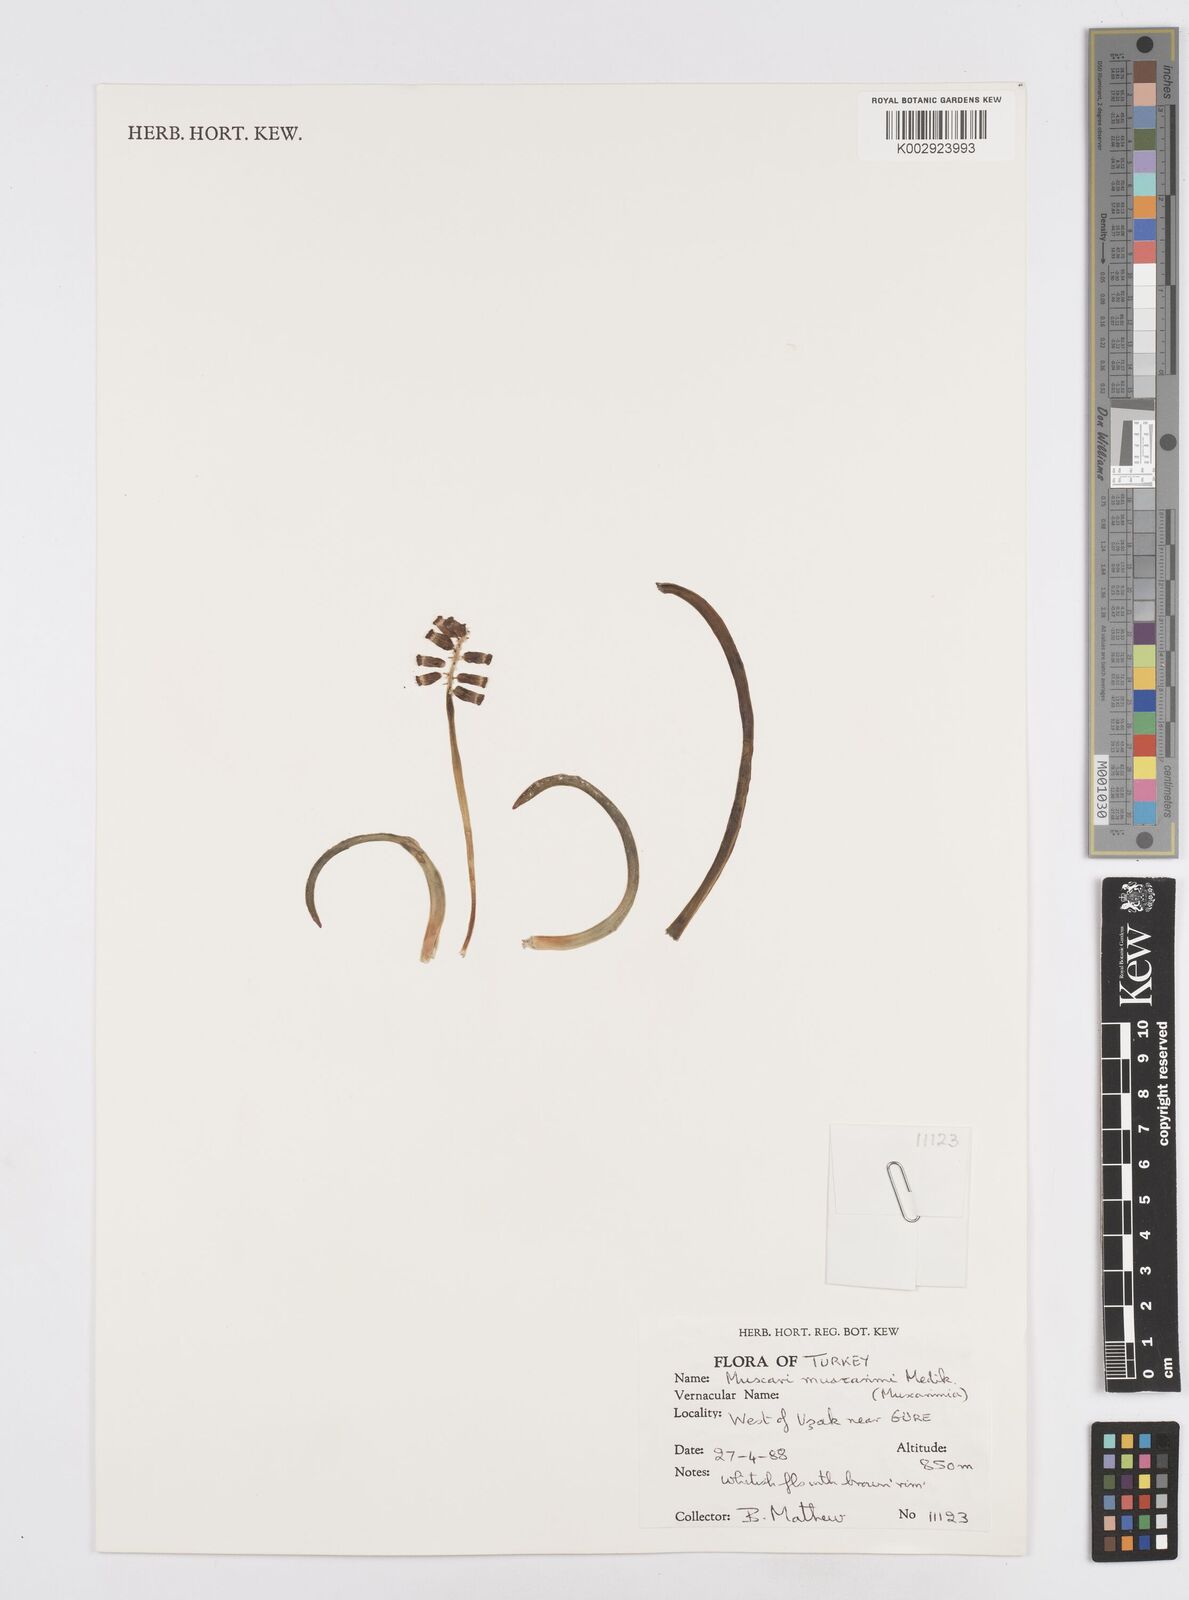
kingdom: Plantae
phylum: Tracheophyta
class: Liliopsida
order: Asparagales
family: Asparagaceae
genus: Muscari
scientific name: Muscari
